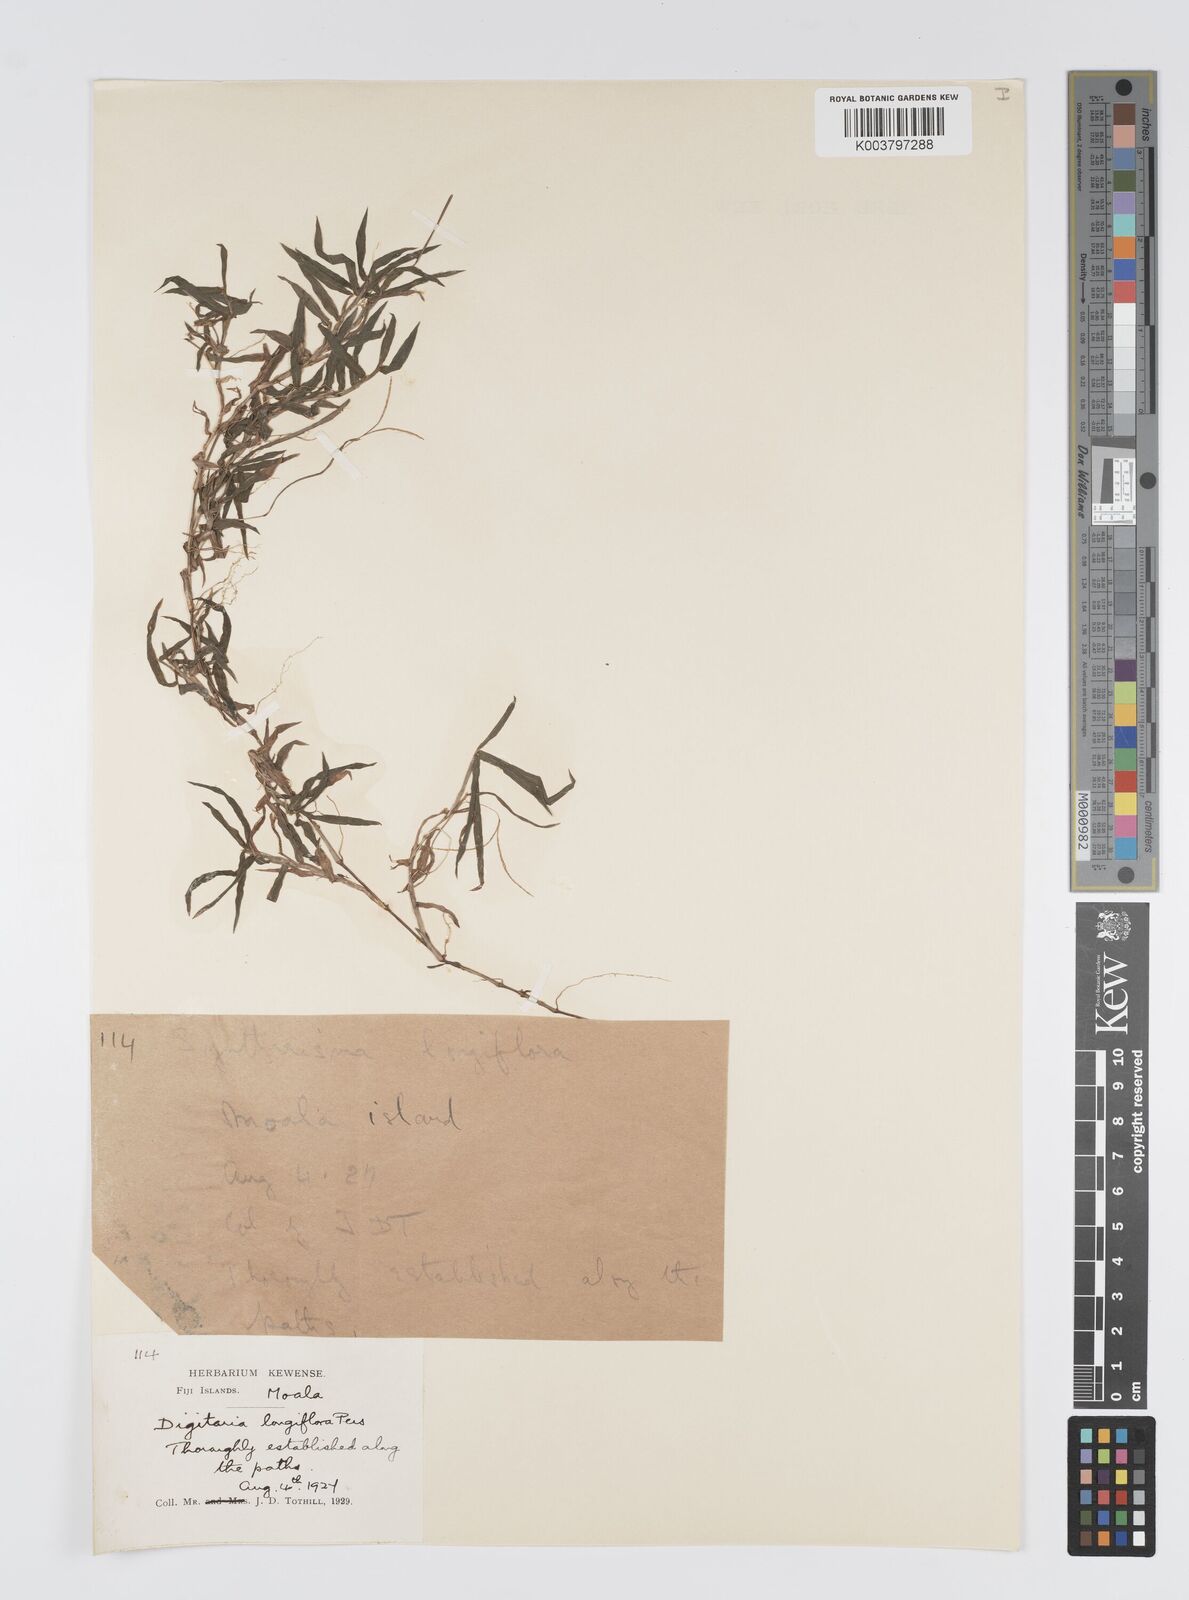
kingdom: Plantae
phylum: Tracheophyta
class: Liliopsida
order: Poales
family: Poaceae
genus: Digitaria
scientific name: Digitaria fuscescens
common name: Yellow crabgrass
